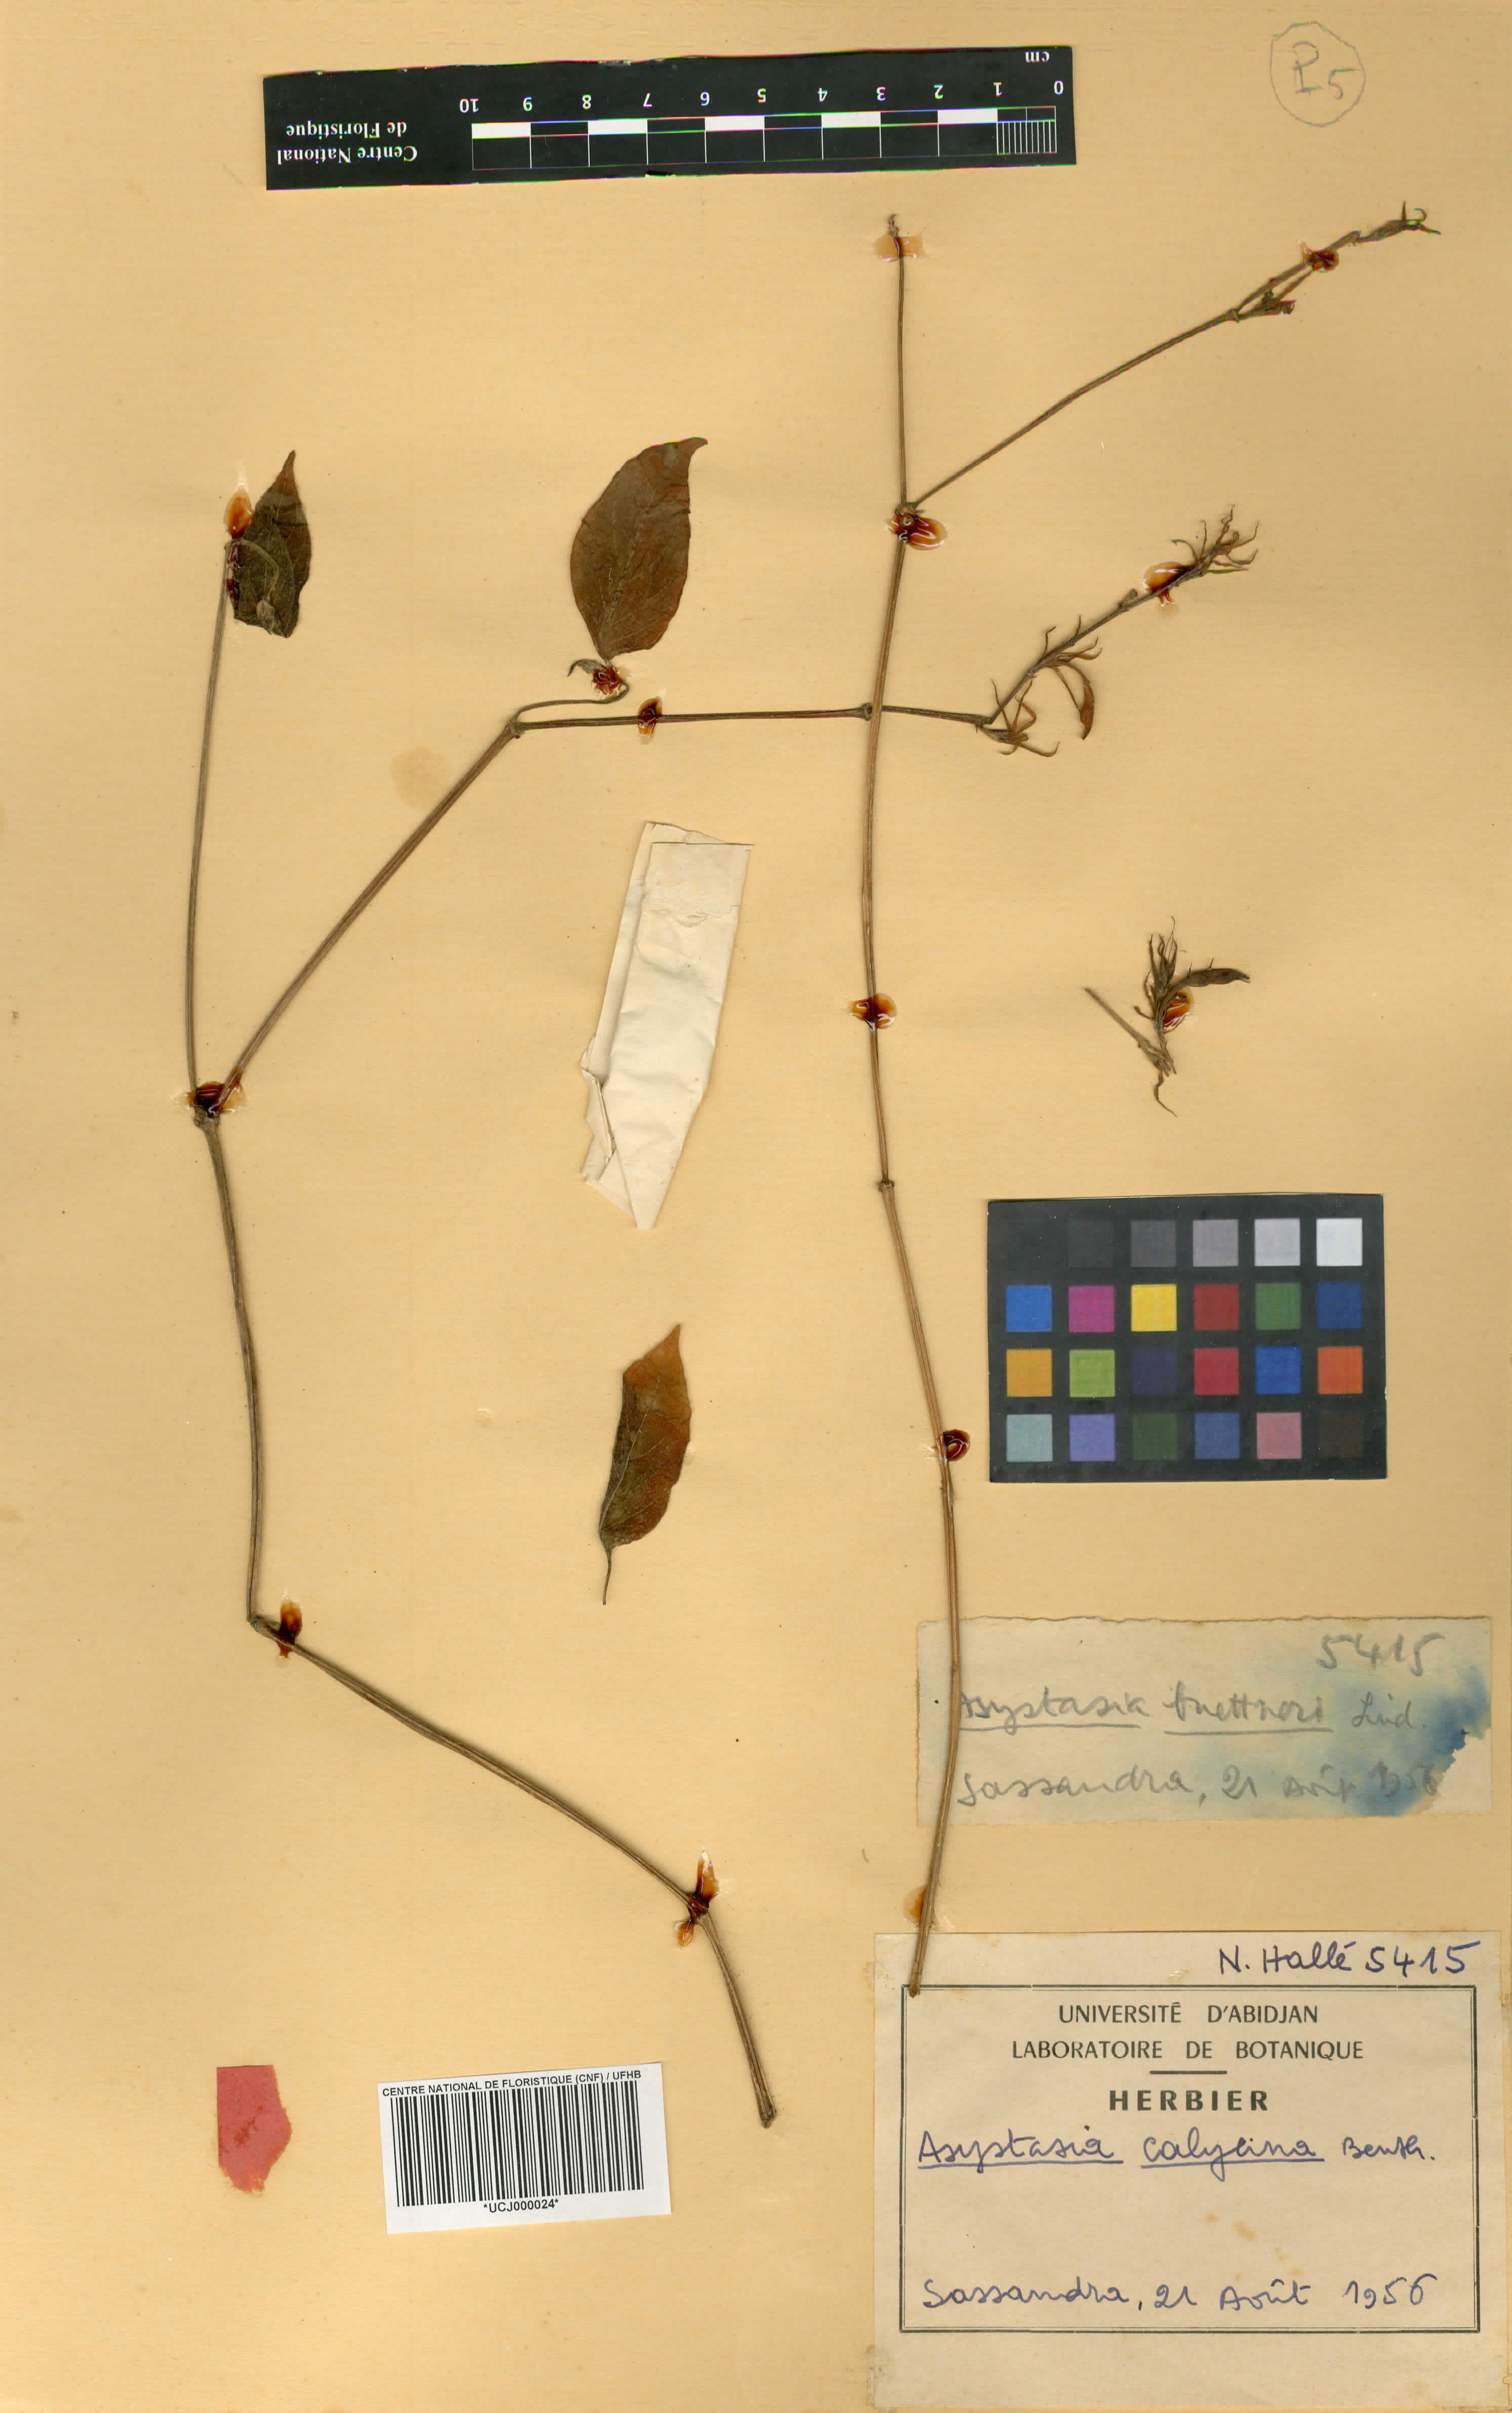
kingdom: Plantae
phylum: Tracheophyta
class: Magnoliopsida
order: Lamiales
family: Acanthaceae
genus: Asystasia
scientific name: Asystasia buettneri
